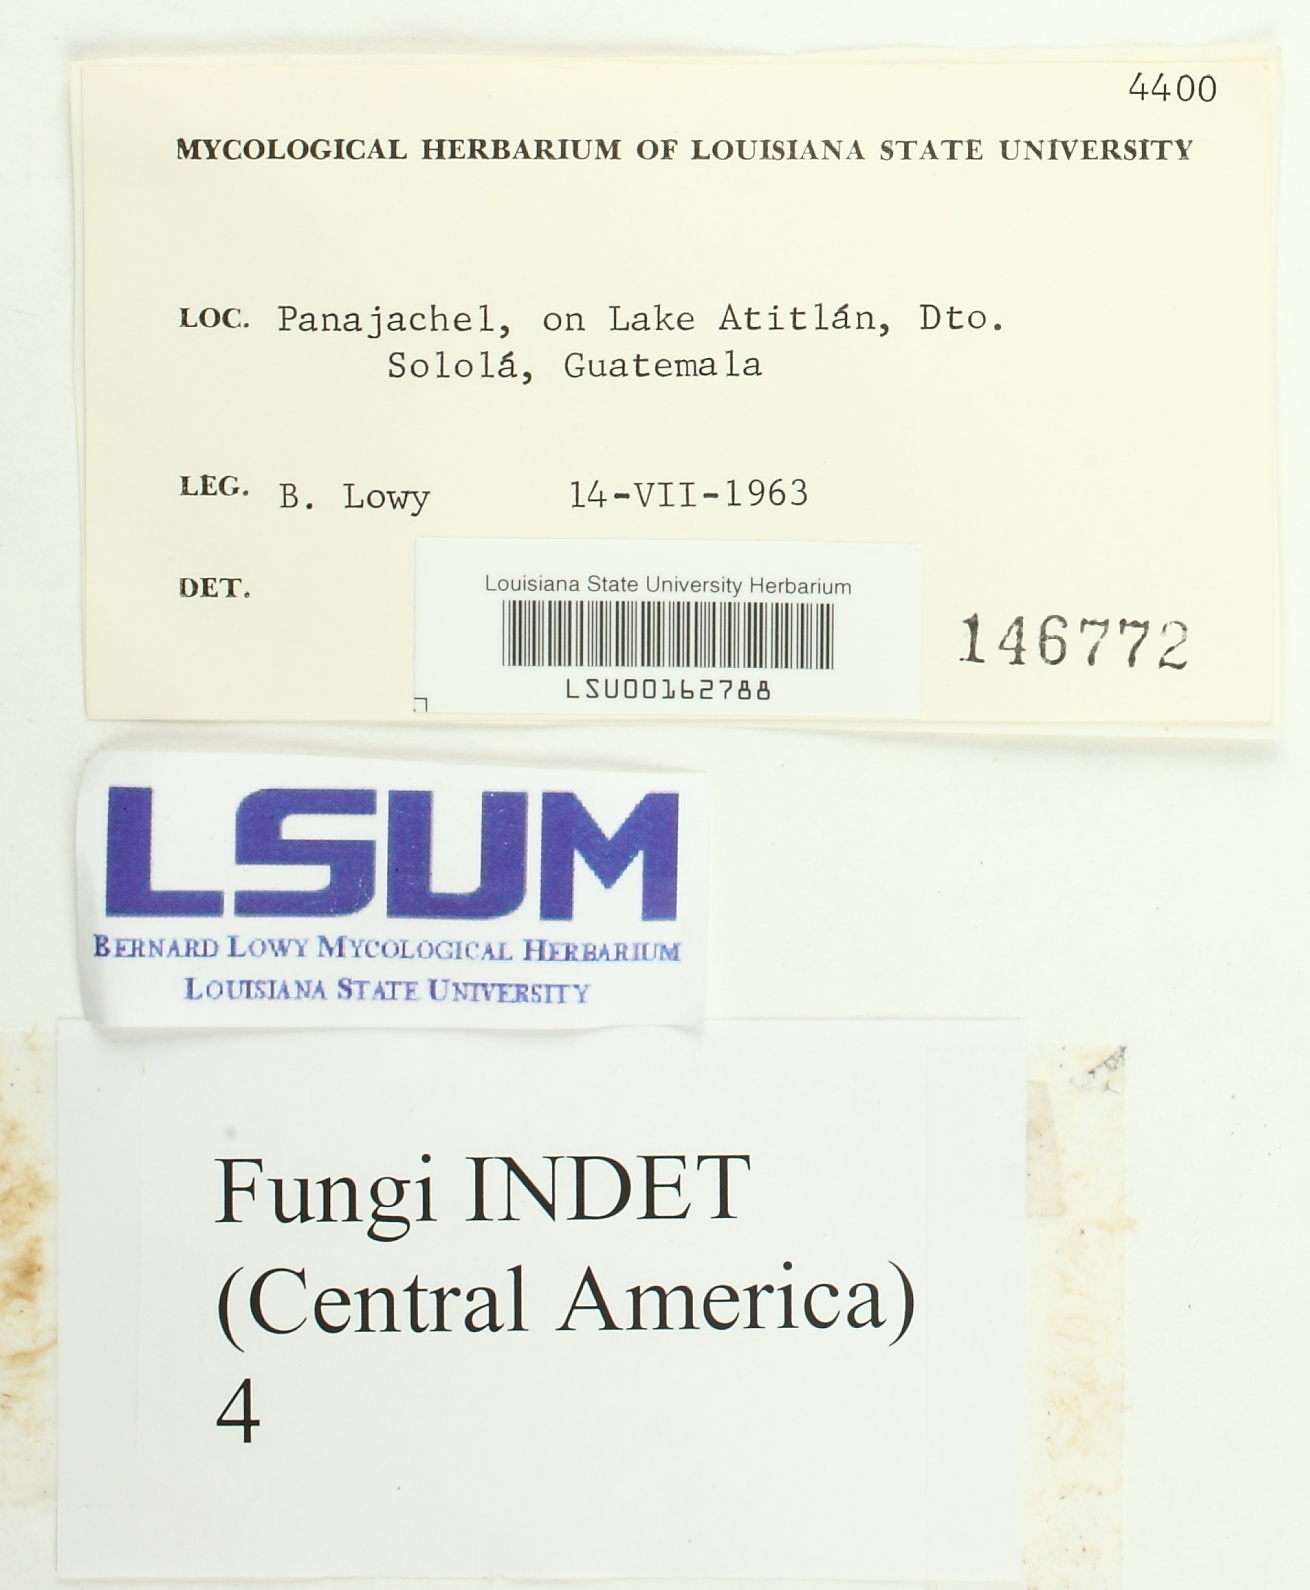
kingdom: Fungi
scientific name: Fungi
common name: Fungi
